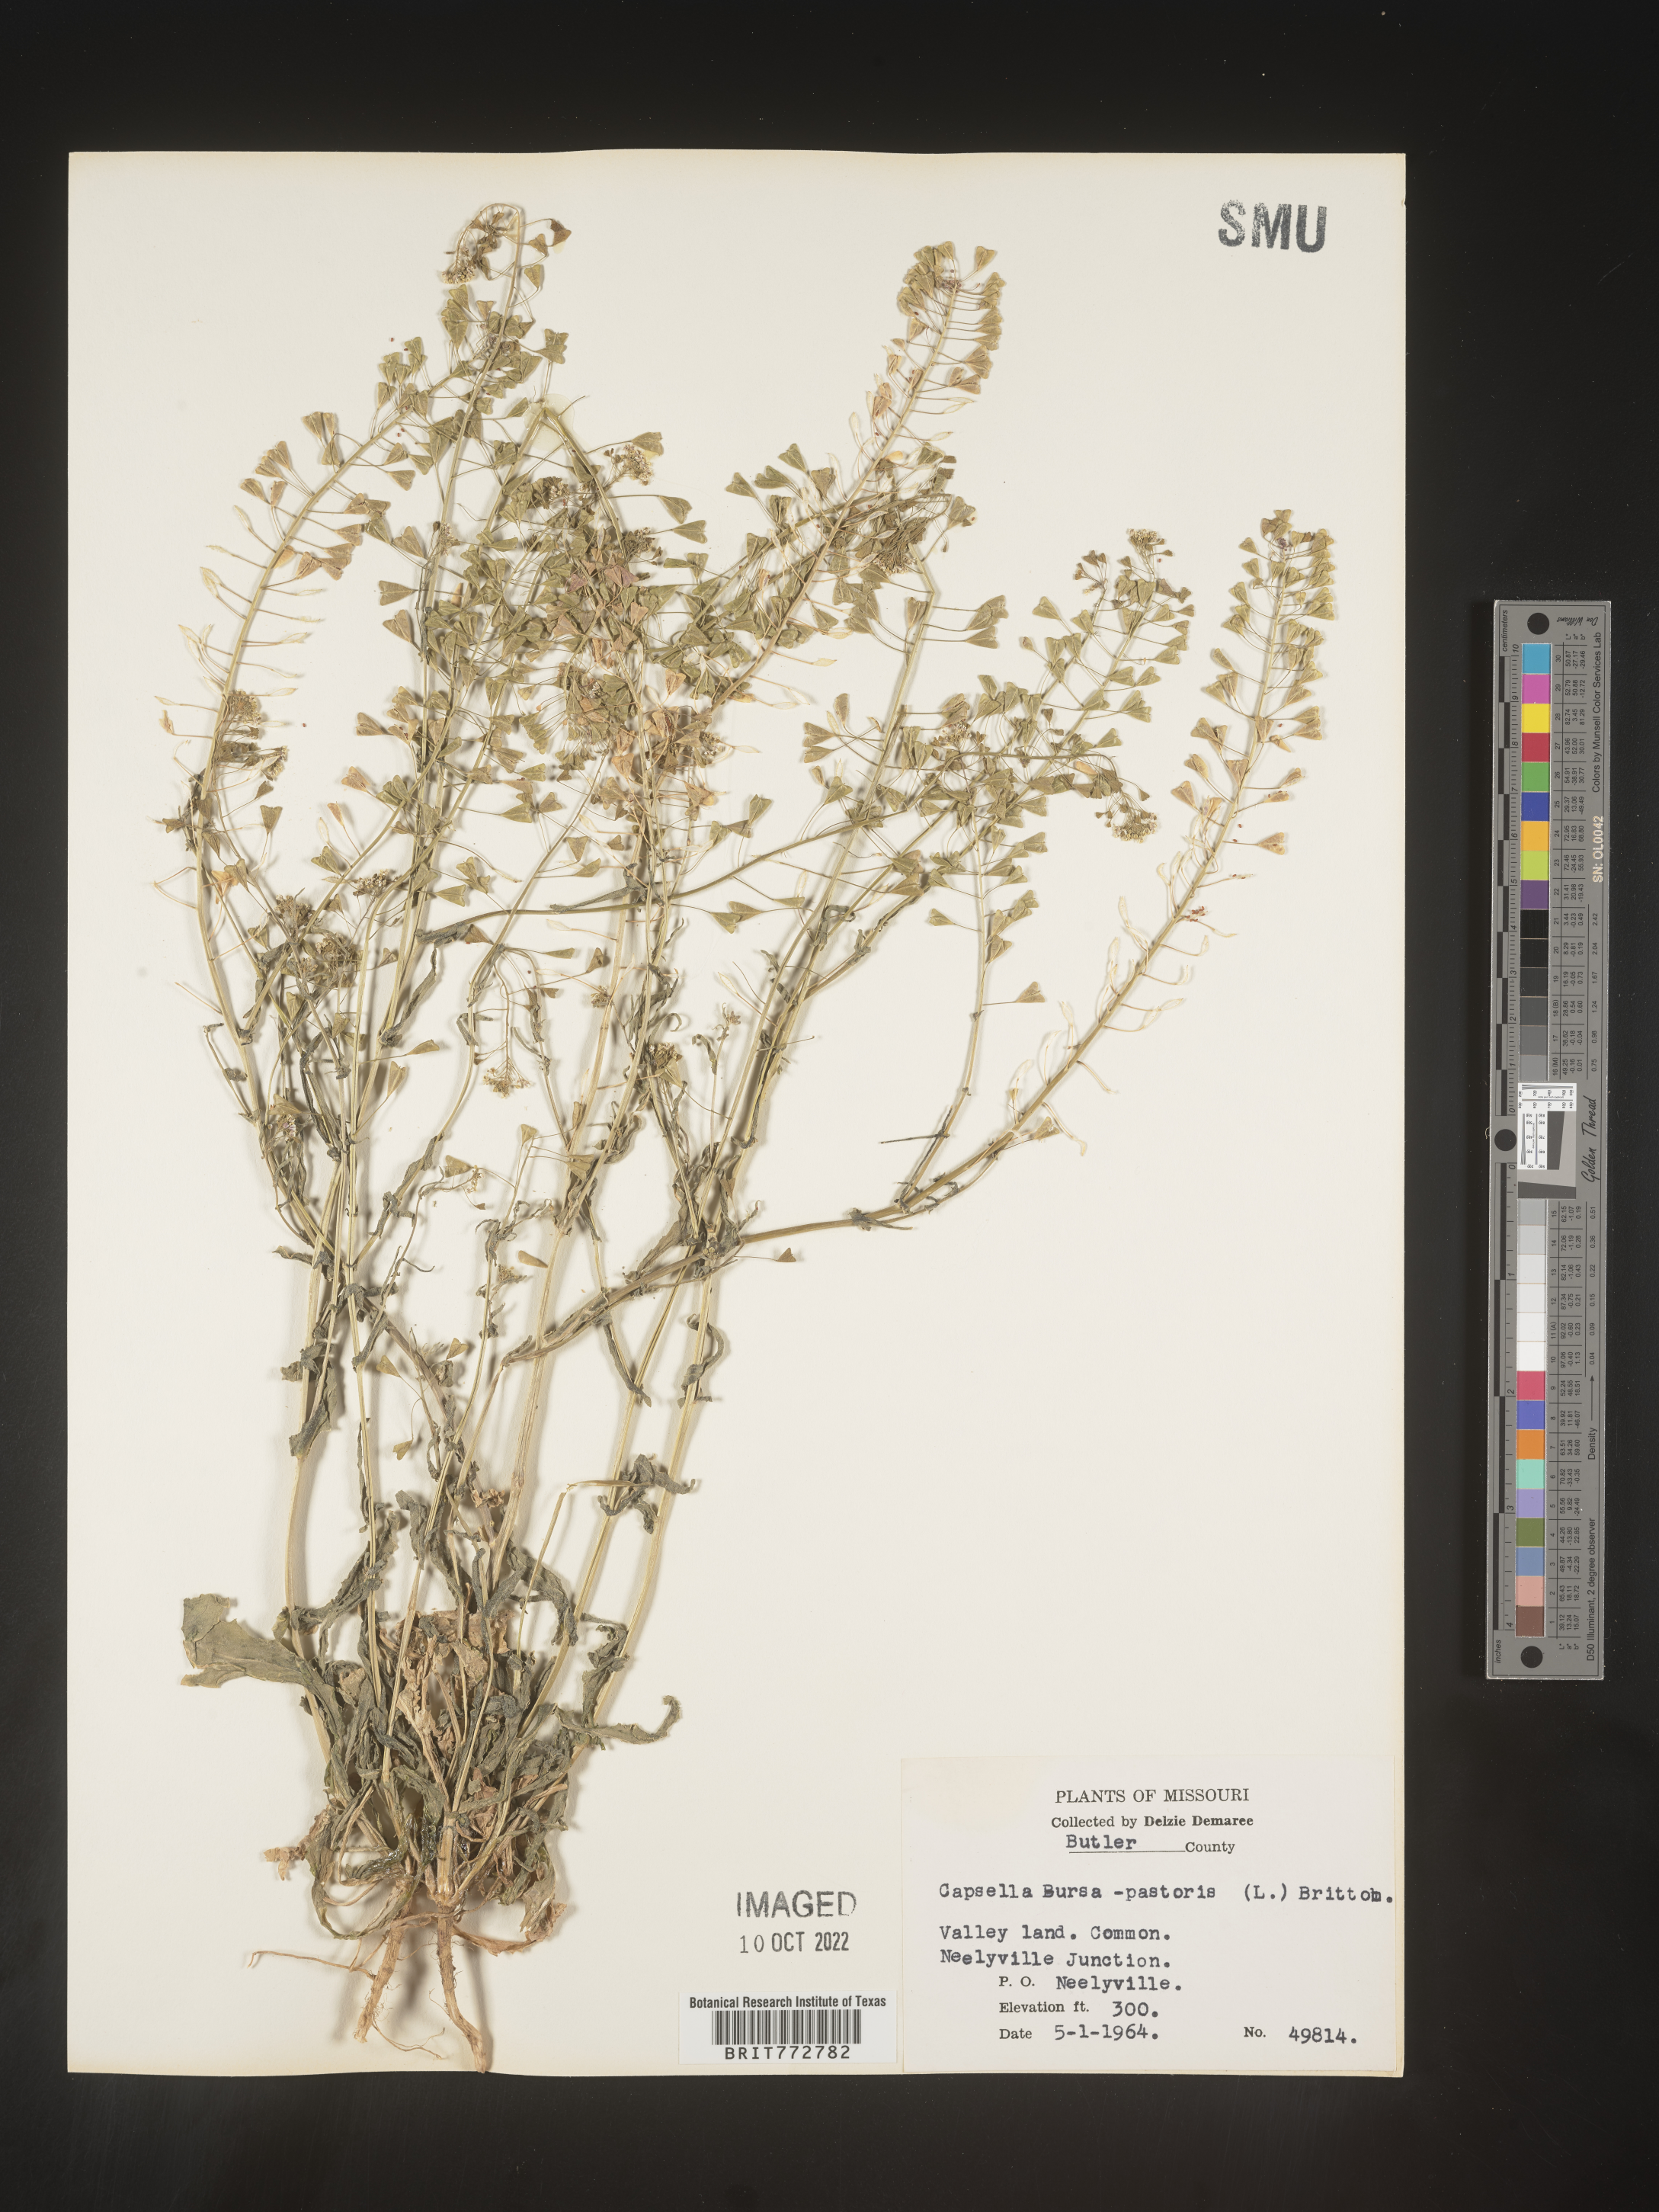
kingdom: Plantae
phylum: Tracheophyta
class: Magnoliopsida
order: Brassicales
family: Brassicaceae
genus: Capsella
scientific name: Capsella bursa-pastoris
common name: Shepherd's purse
